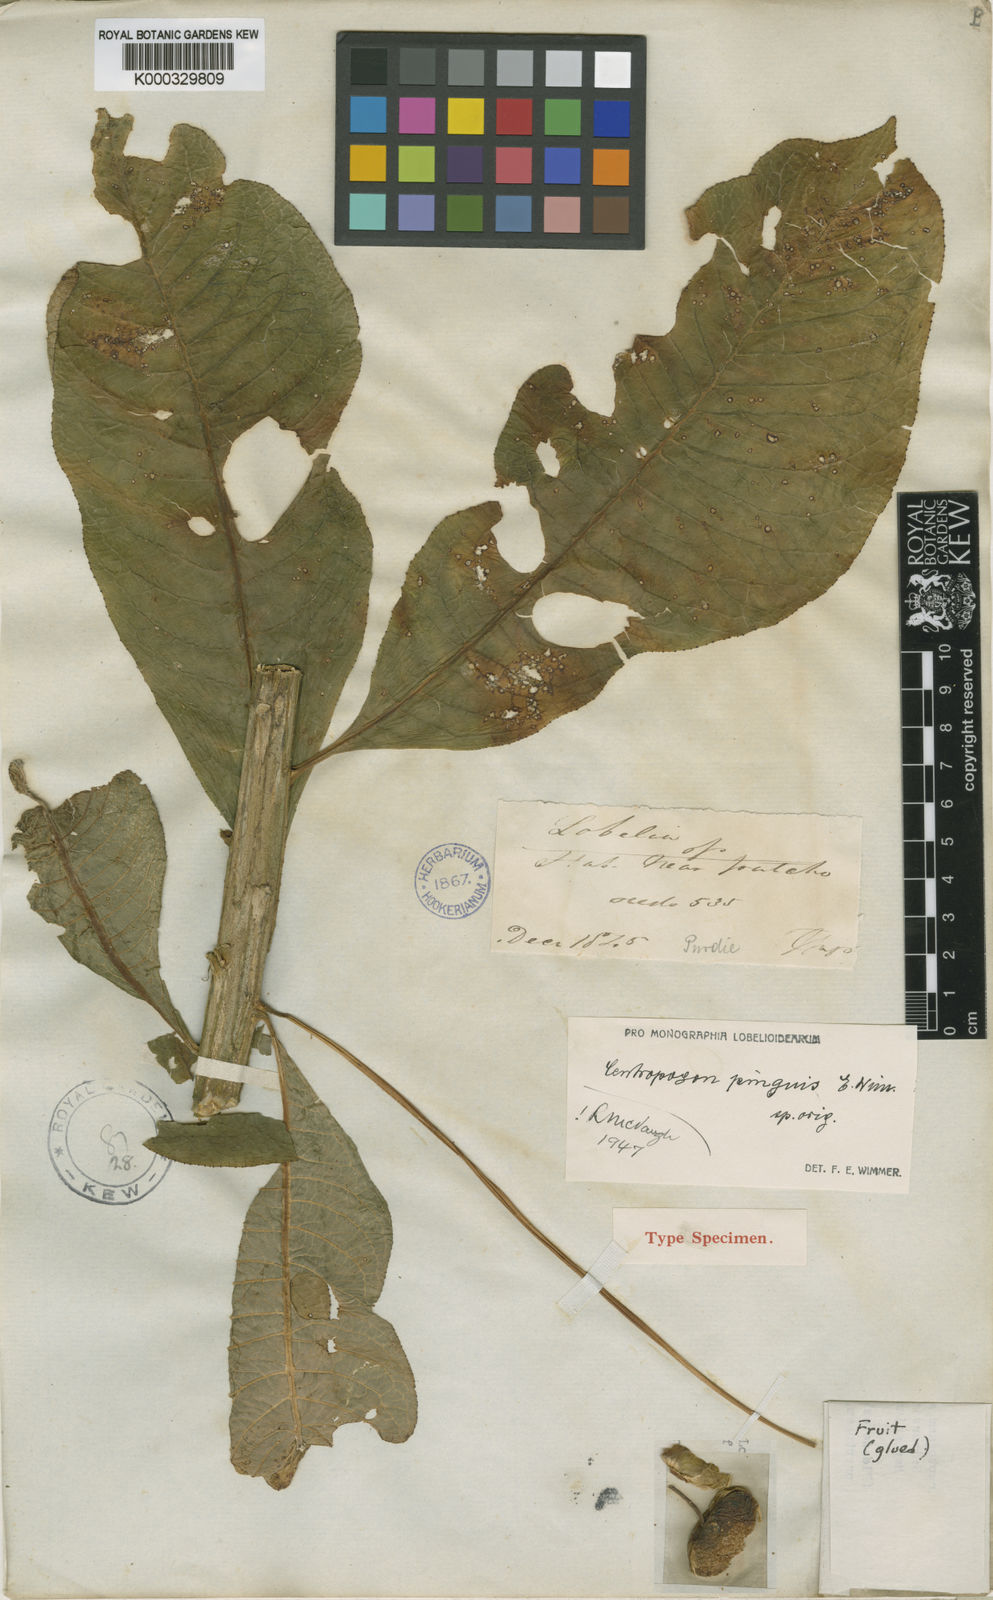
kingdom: Plantae
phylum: Tracheophyta
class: Magnoliopsida
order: Asterales
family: Campanulaceae
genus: Centropogon
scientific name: Centropogon pinguis
